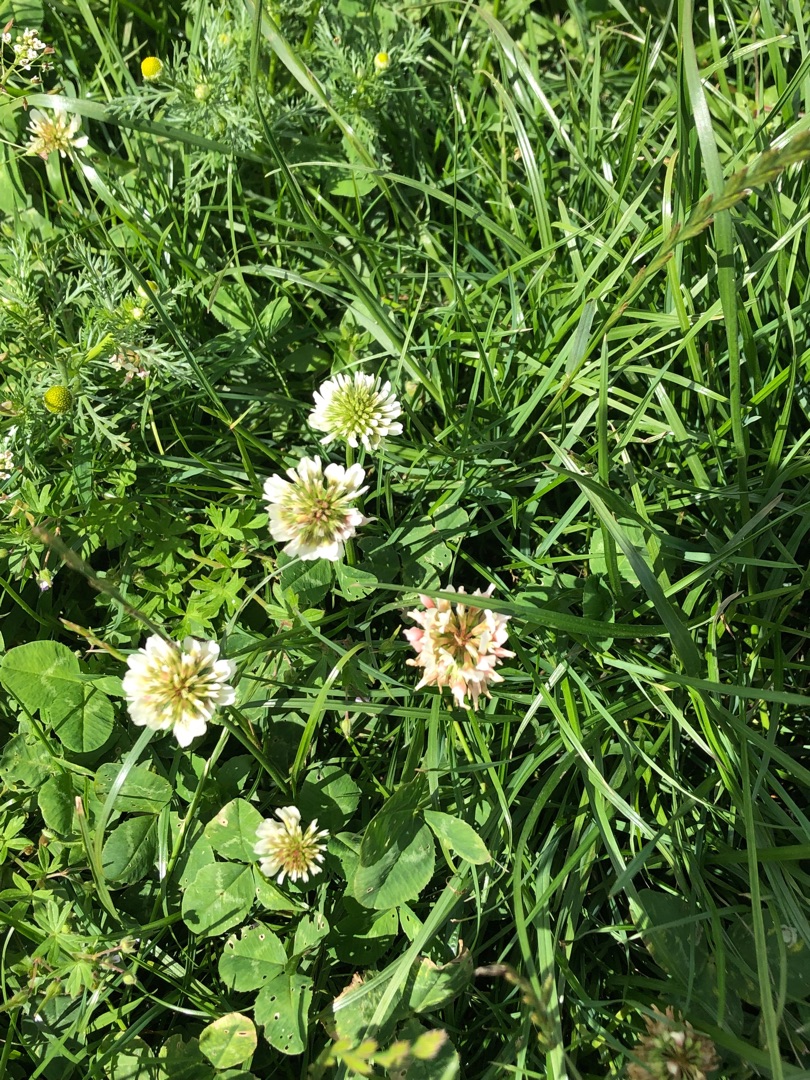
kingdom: Plantae
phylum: Tracheophyta
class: Magnoliopsida
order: Fabales
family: Fabaceae
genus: Trifolium
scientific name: Trifolium repens
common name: Hvid-kløver
